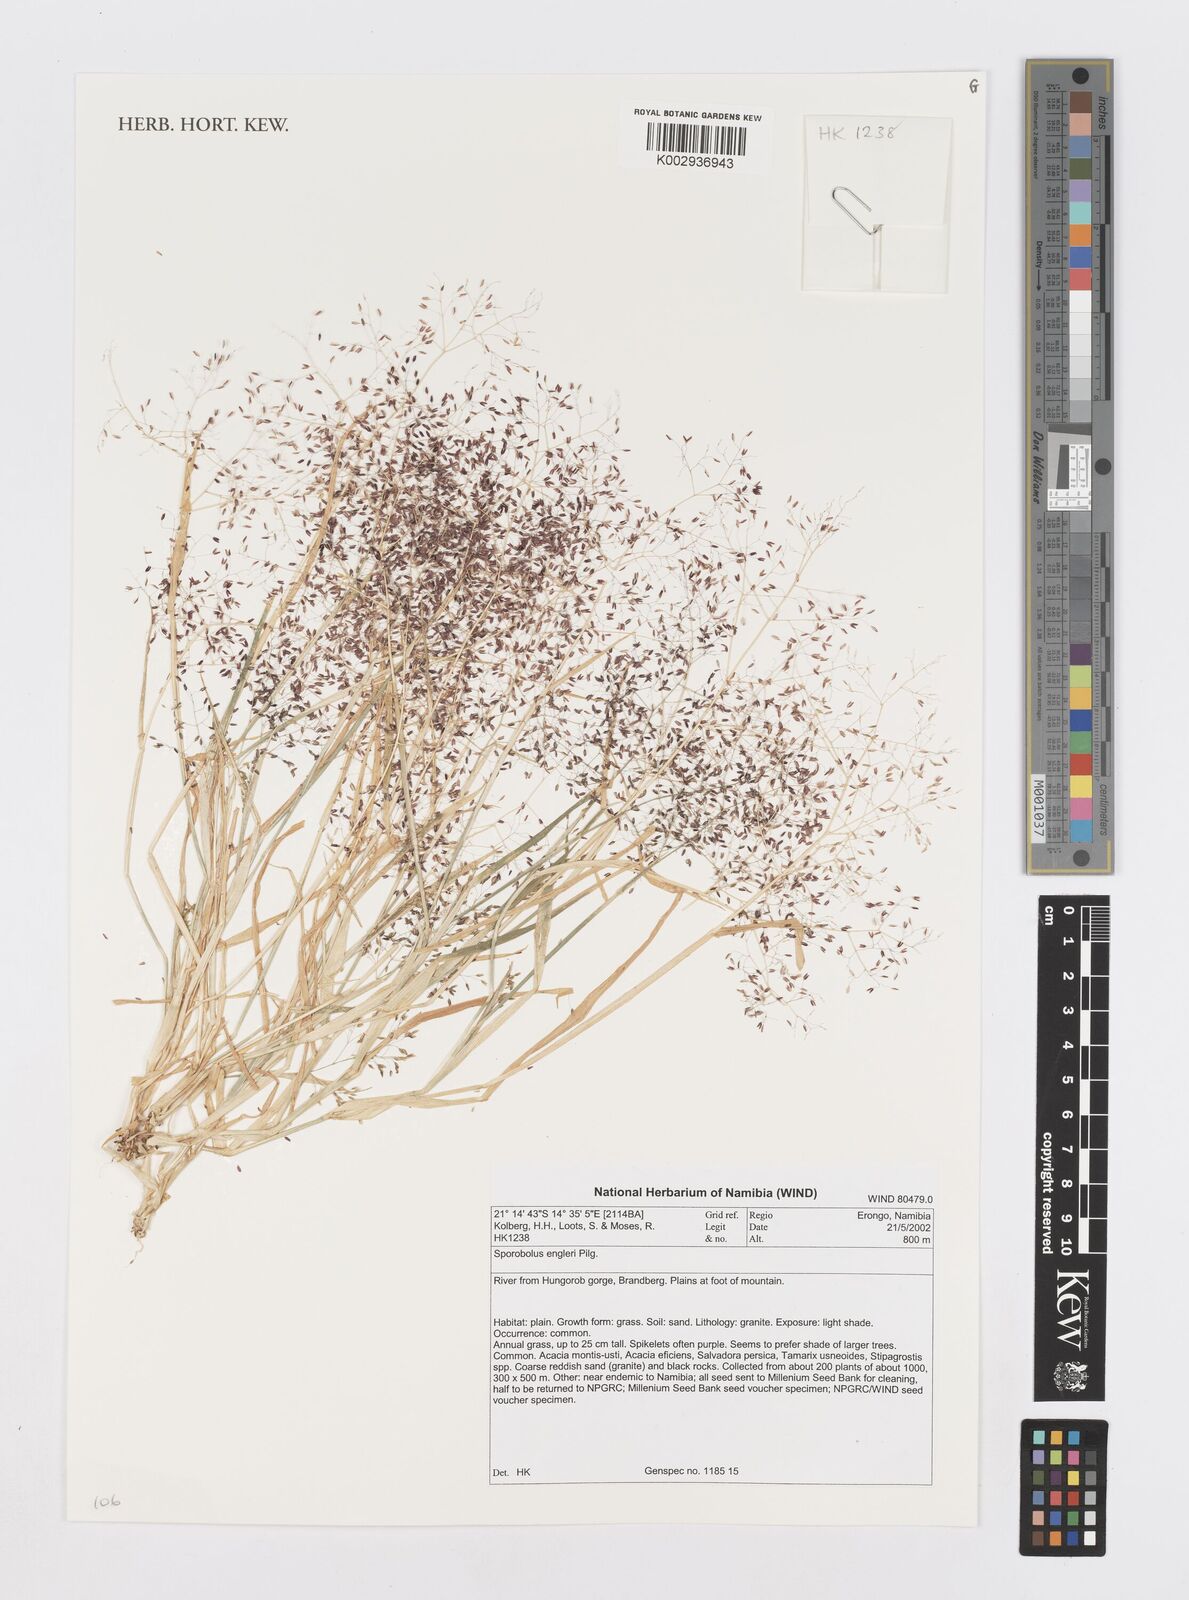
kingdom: Plantae
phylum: Tracheophyta
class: Liliopsida
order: Poales
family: Poaceae
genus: Sporobolus
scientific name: Sporobolus engleri
